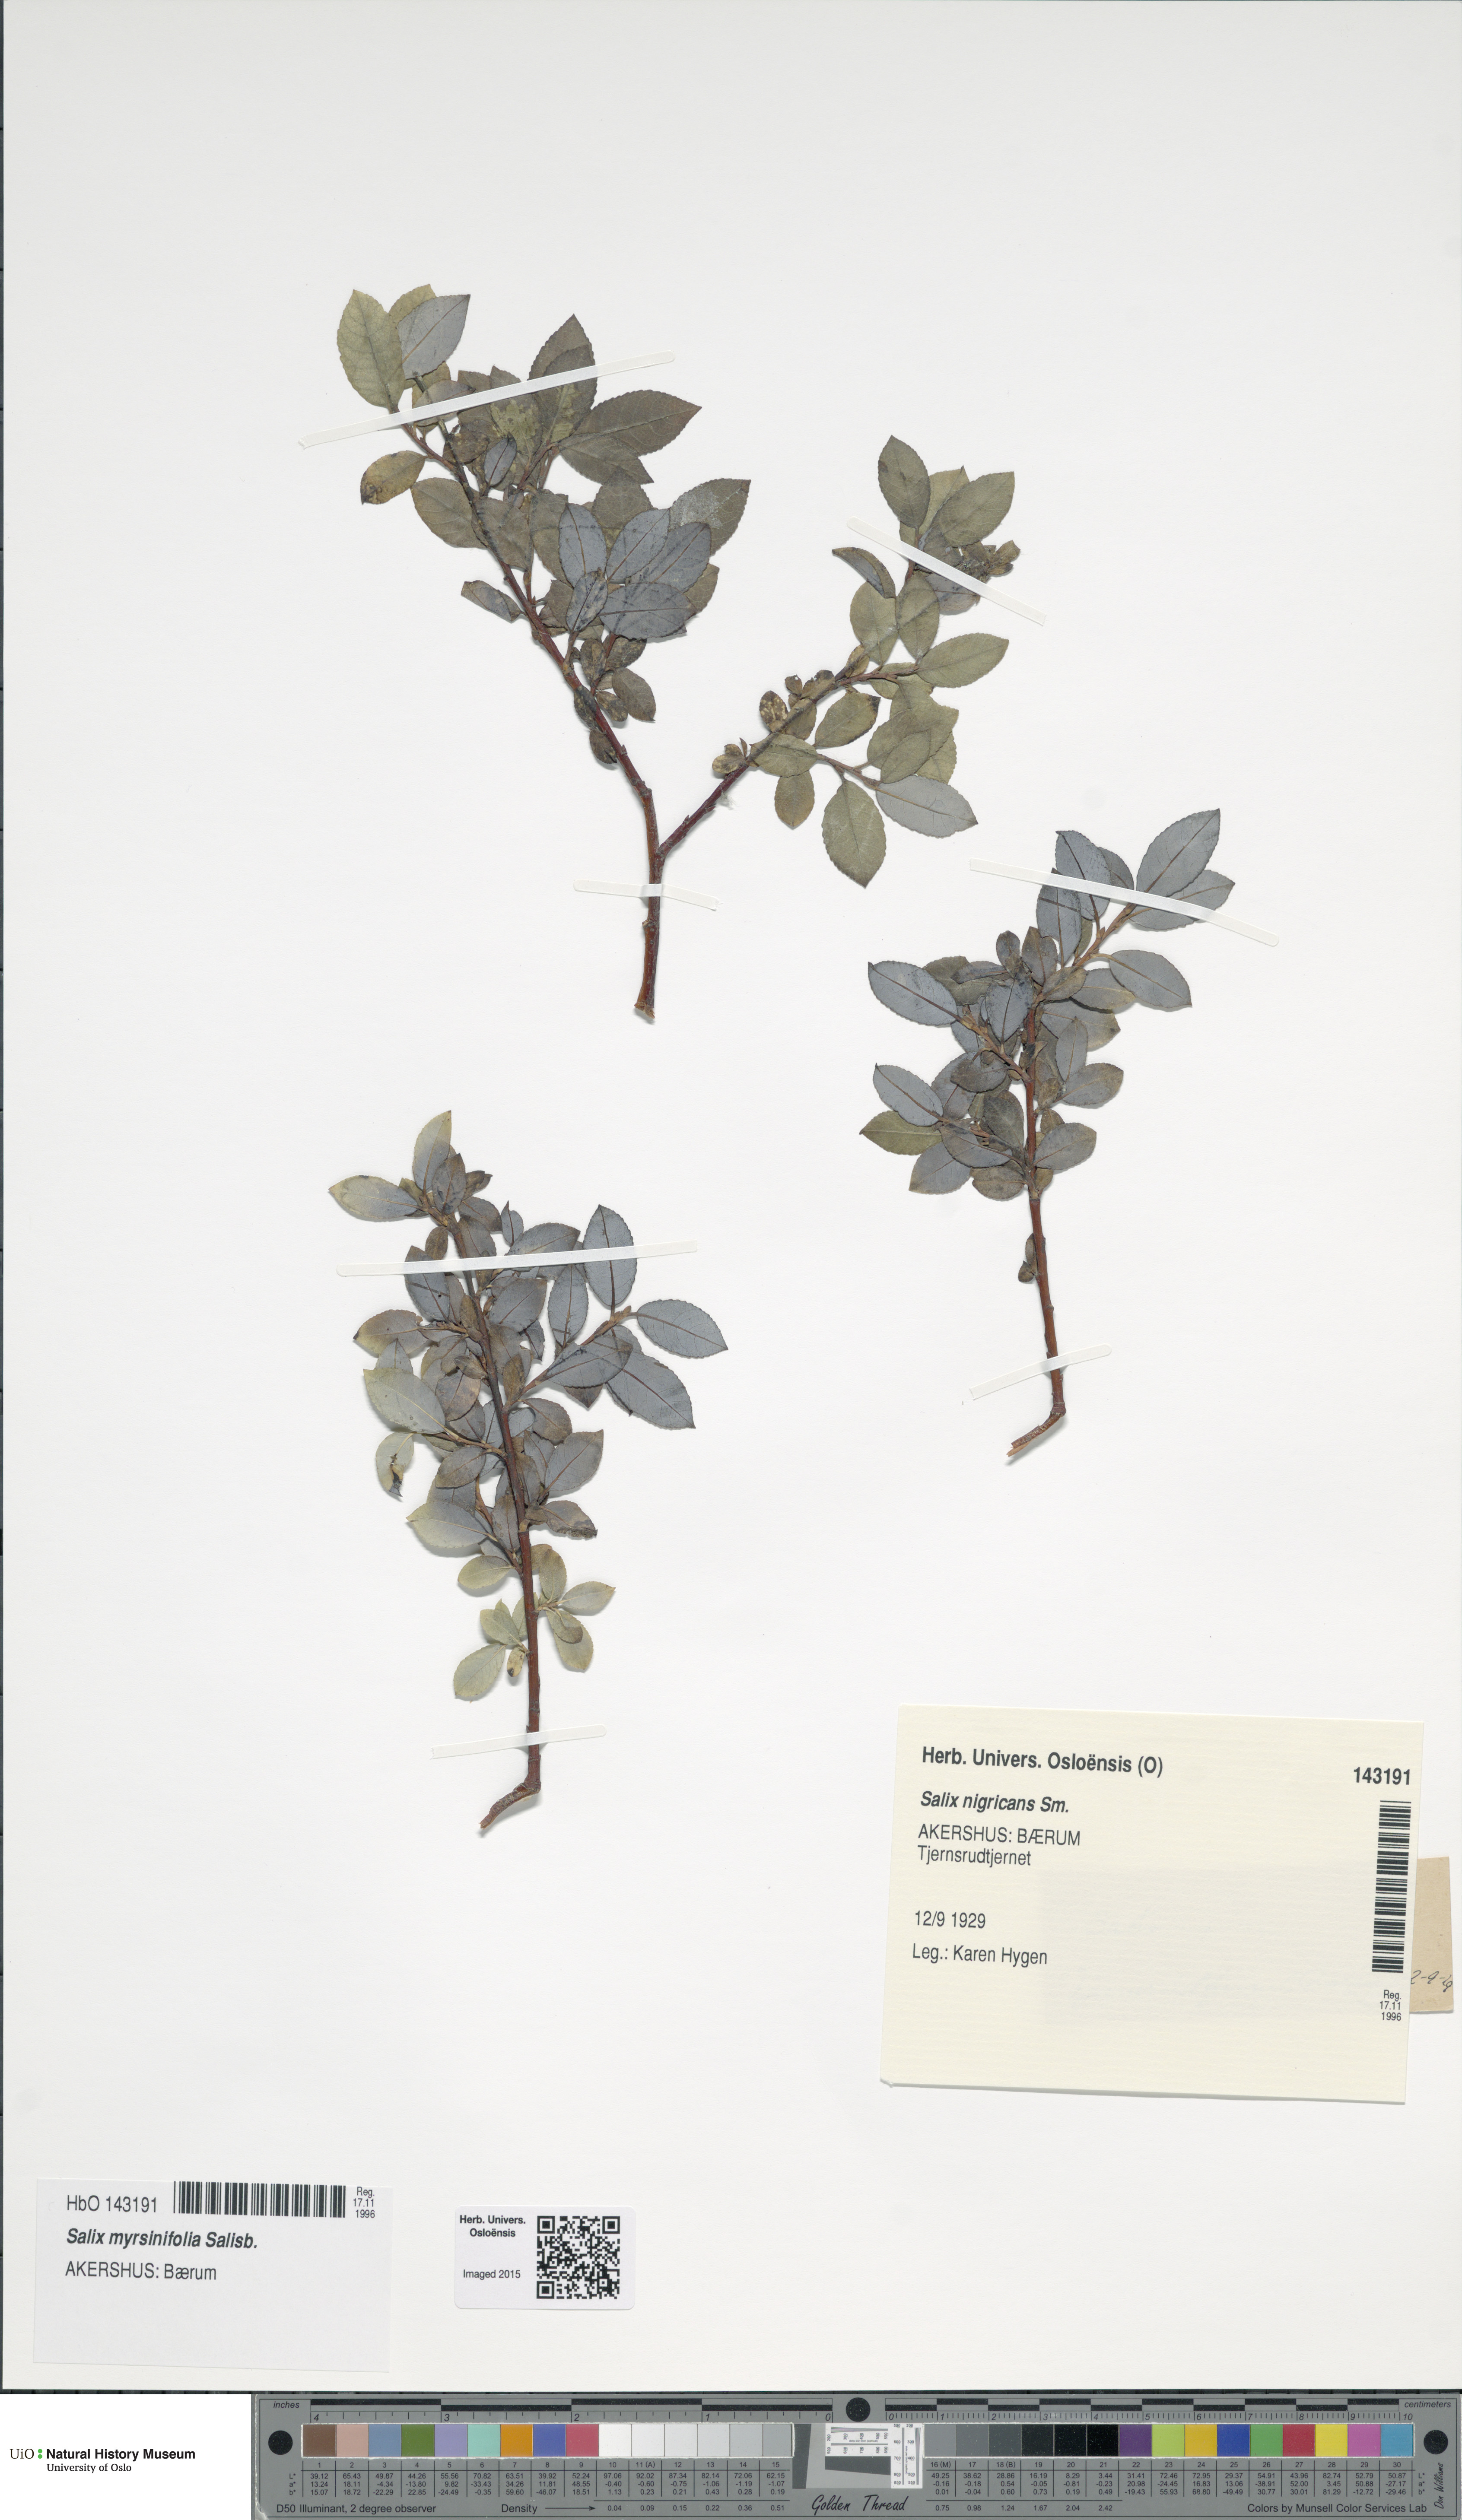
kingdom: Plantae
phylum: Tracheophyta
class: Magnoliopsida
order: Malpighiales
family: Salicaceae
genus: Salix
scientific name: Salix myrsinifolia
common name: Dark-leaved willow
